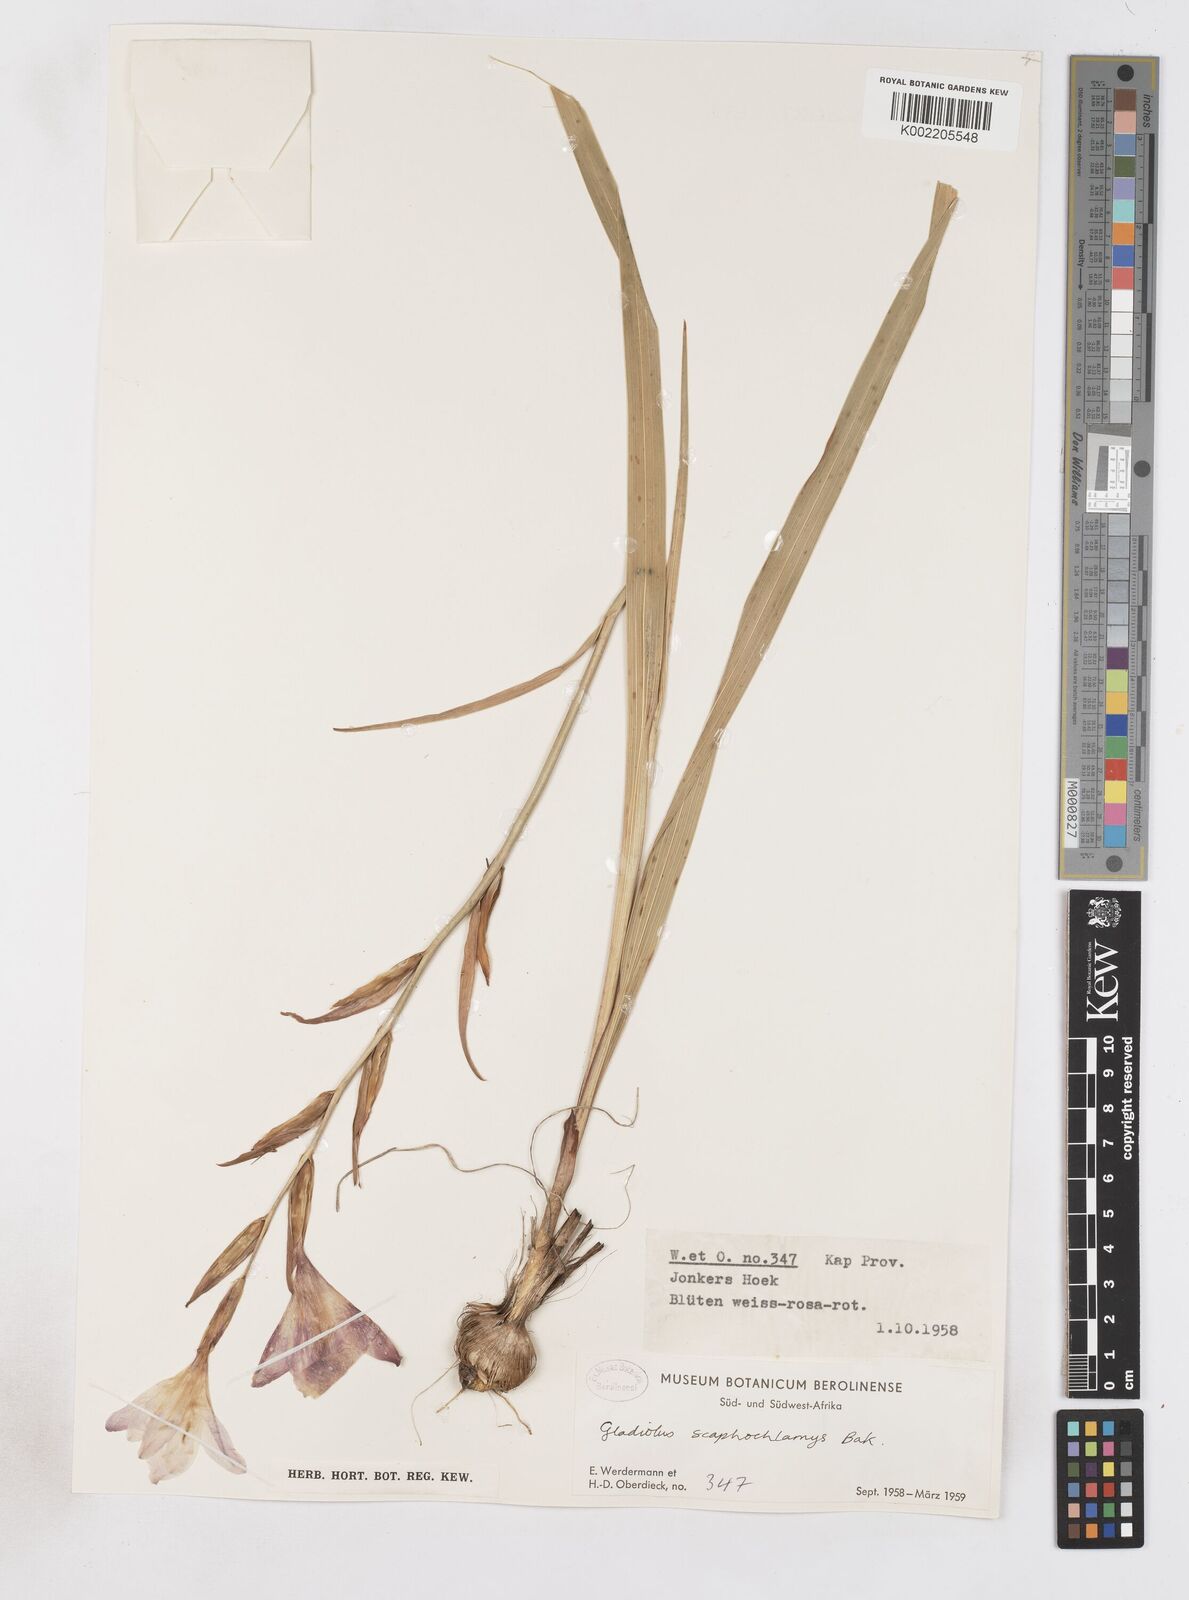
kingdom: Plantae
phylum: Tracheophyta
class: Liliopsida
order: Asparagales
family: Iridaceae
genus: Gladiolus
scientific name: Gladiolus carneus
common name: Painted-lady
